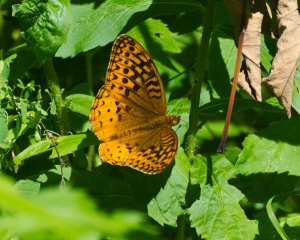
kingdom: Animalia
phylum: Arthropoda
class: Insecta
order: Lepidoptera
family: Nymphalidae
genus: Speyeria
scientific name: Speyeria cybele
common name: Great Spangled Fritillary
